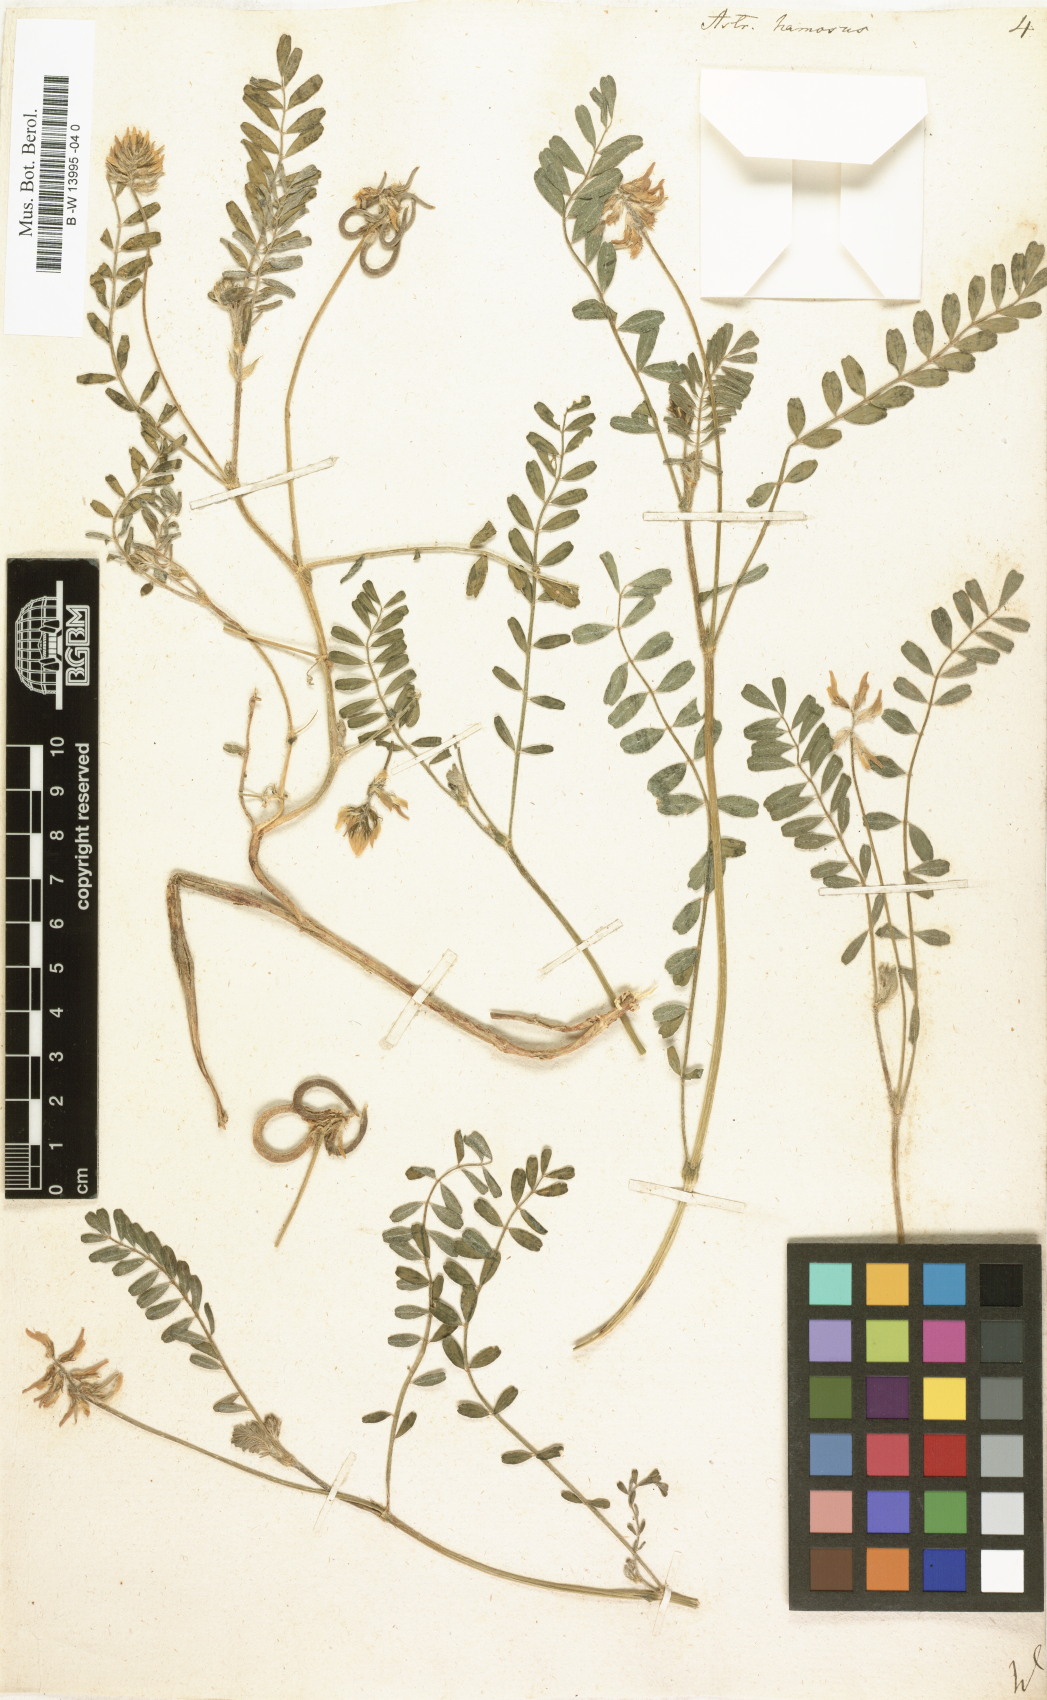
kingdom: Plantae
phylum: Tracheophyta
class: Magnoliopsida
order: Fabales
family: Fabaceae
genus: Astragalus
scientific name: Astragalus hamosus
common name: European milkvetch
